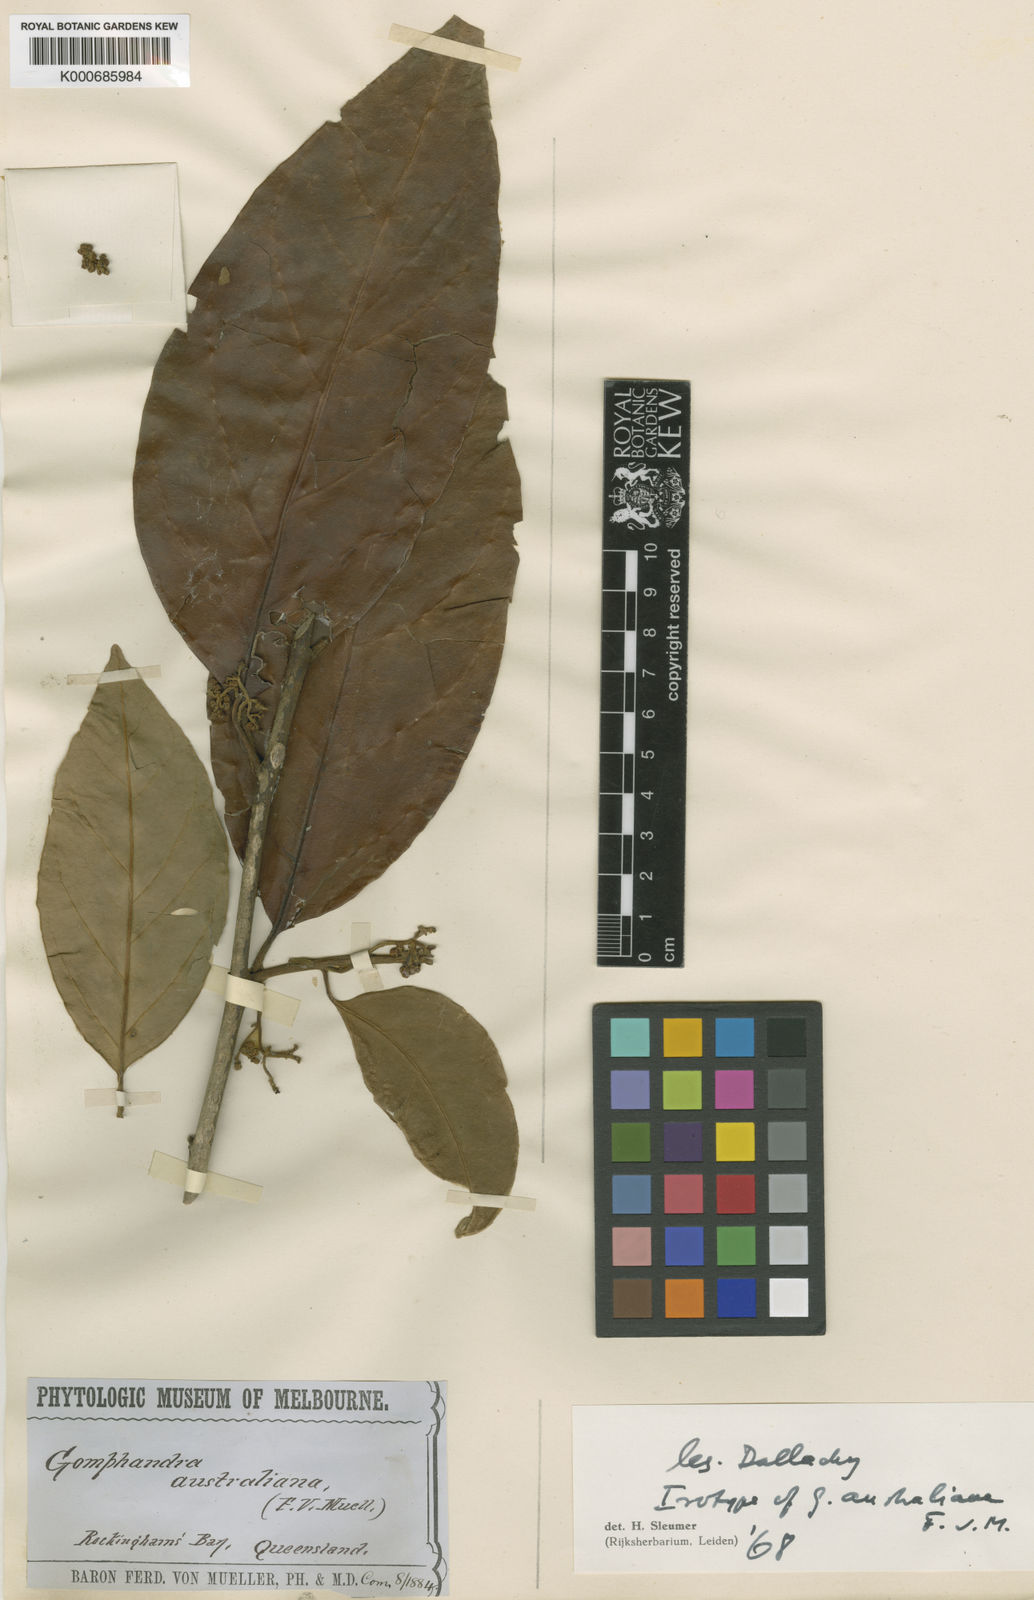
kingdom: Plantae
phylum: Tracheophyta
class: Magnoliopsida
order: Cardiopteridales
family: Stemonuraceae
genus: Gomphandra
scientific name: Gomphandra australiana
